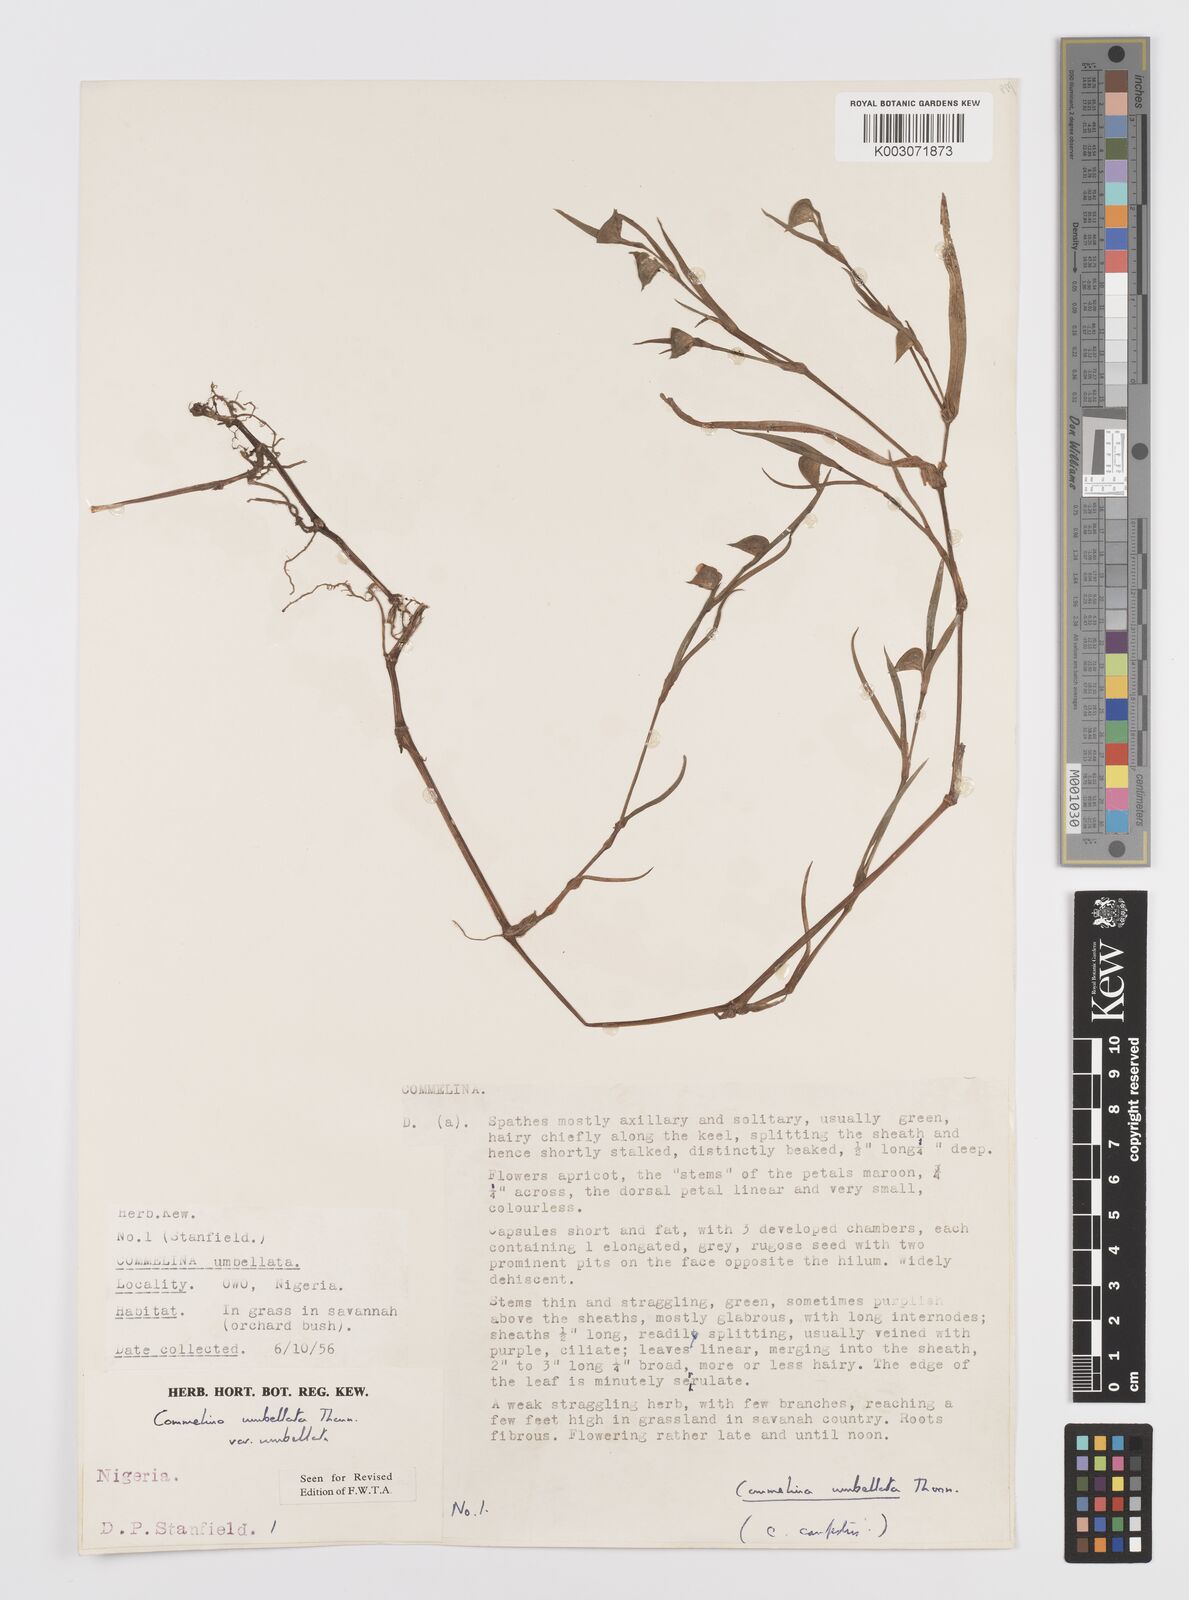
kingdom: Plantae
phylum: Tracheophyta
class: Liliopsida
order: Commelinales
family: Commelinaceae
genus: Commelina
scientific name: Commelina
